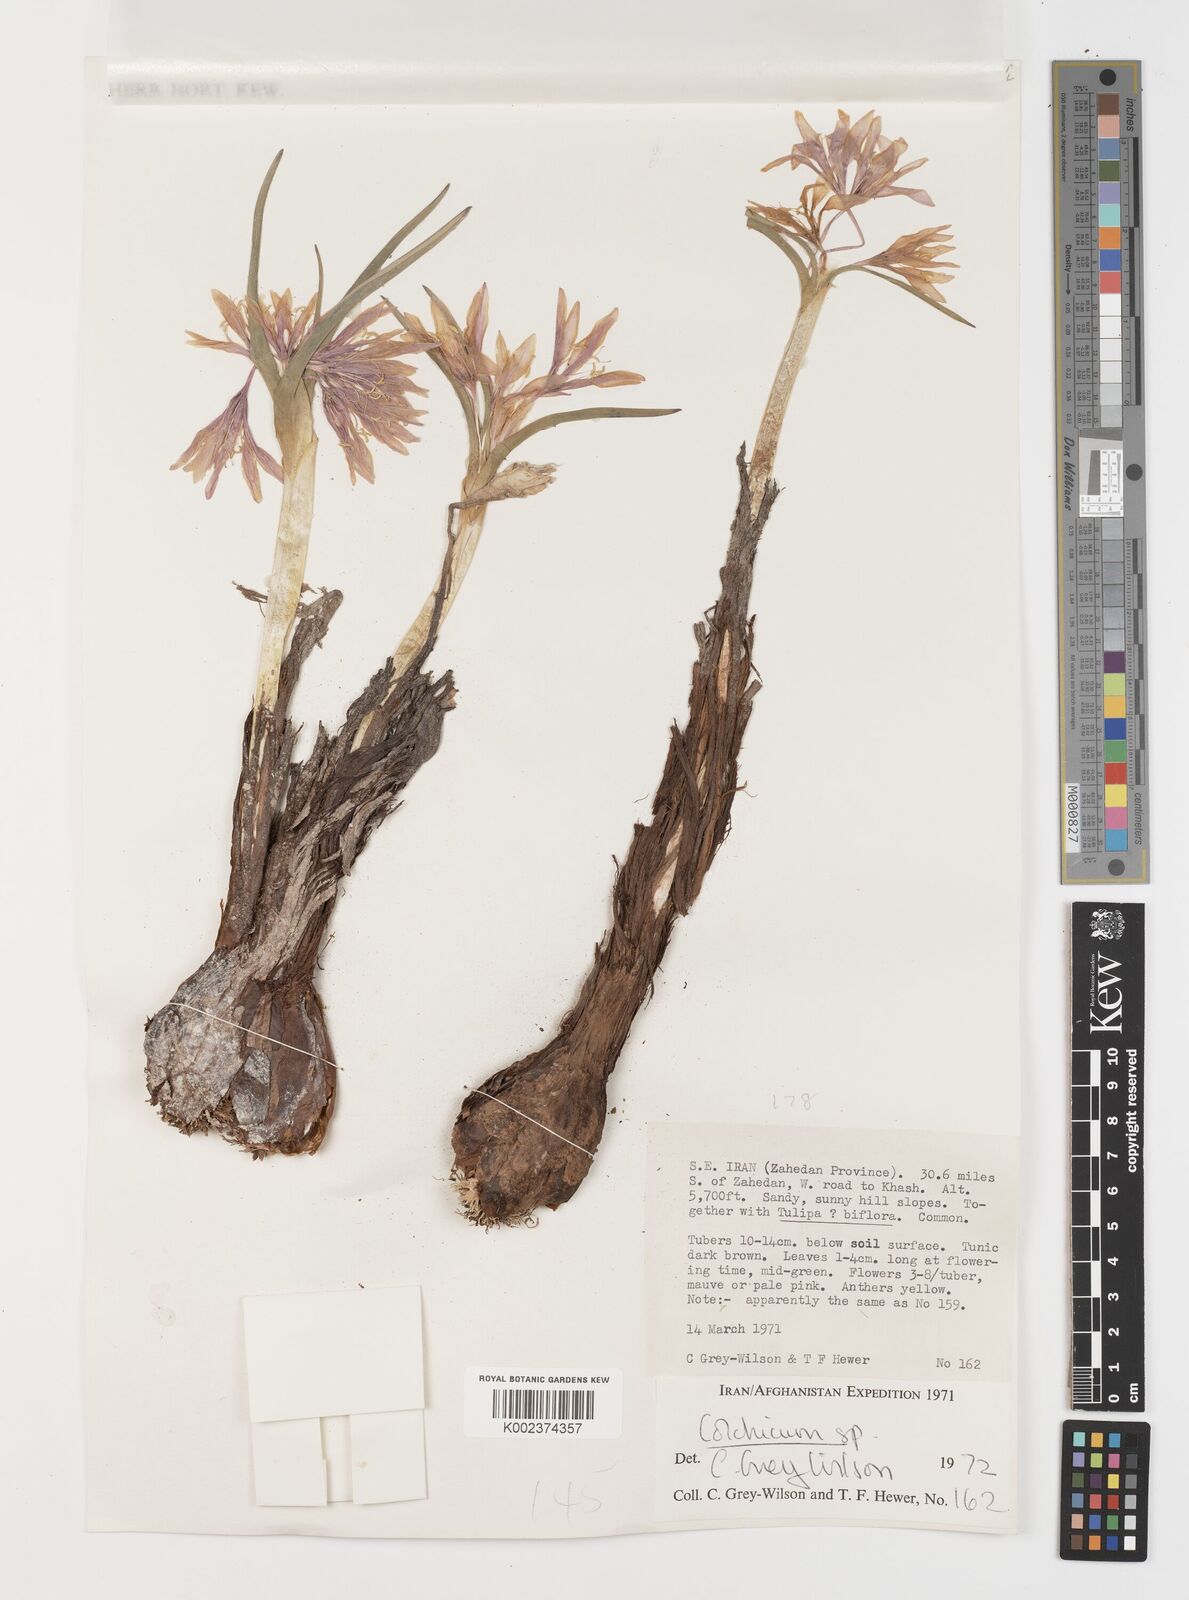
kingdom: Plantae
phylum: Tracheophyta
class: Liliopsida
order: Liliales
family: Colchicaceae
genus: Colchicum
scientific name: Colchicum
